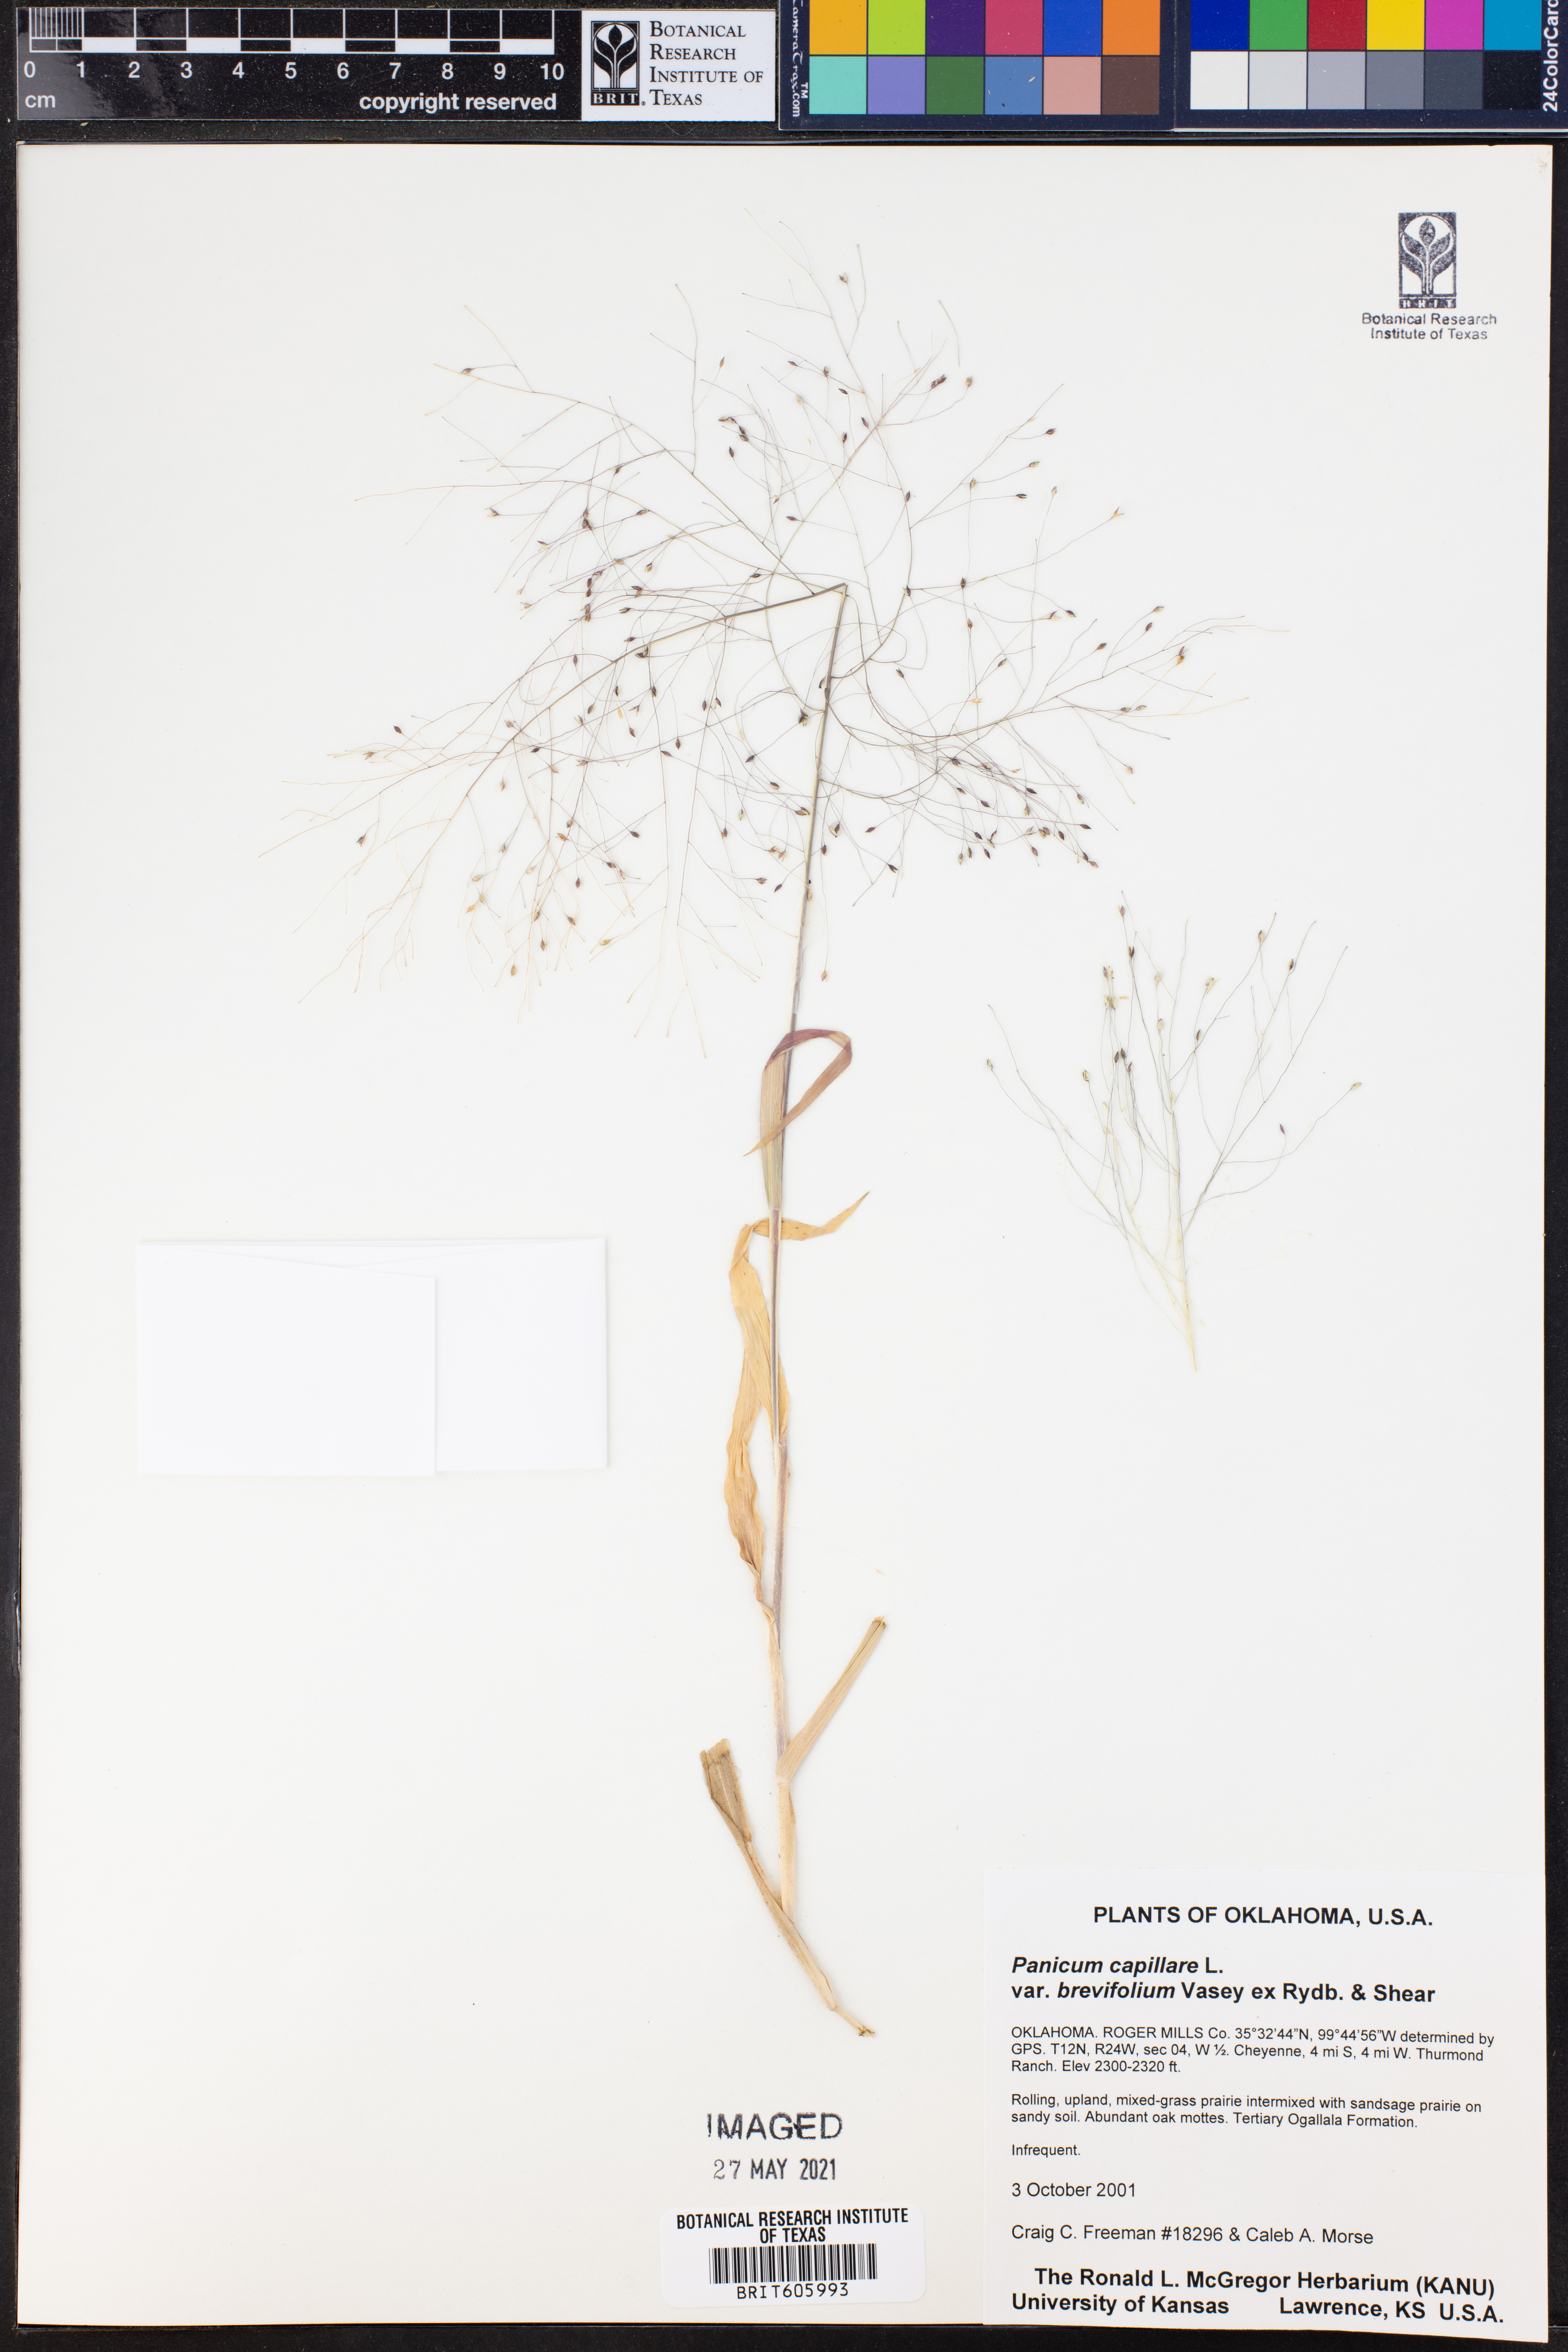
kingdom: Plantae
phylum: Tracheophyta
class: Liliopsida
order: Poales
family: Poaceae
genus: Panicum
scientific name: Panicum capillare
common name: Witch-grass
